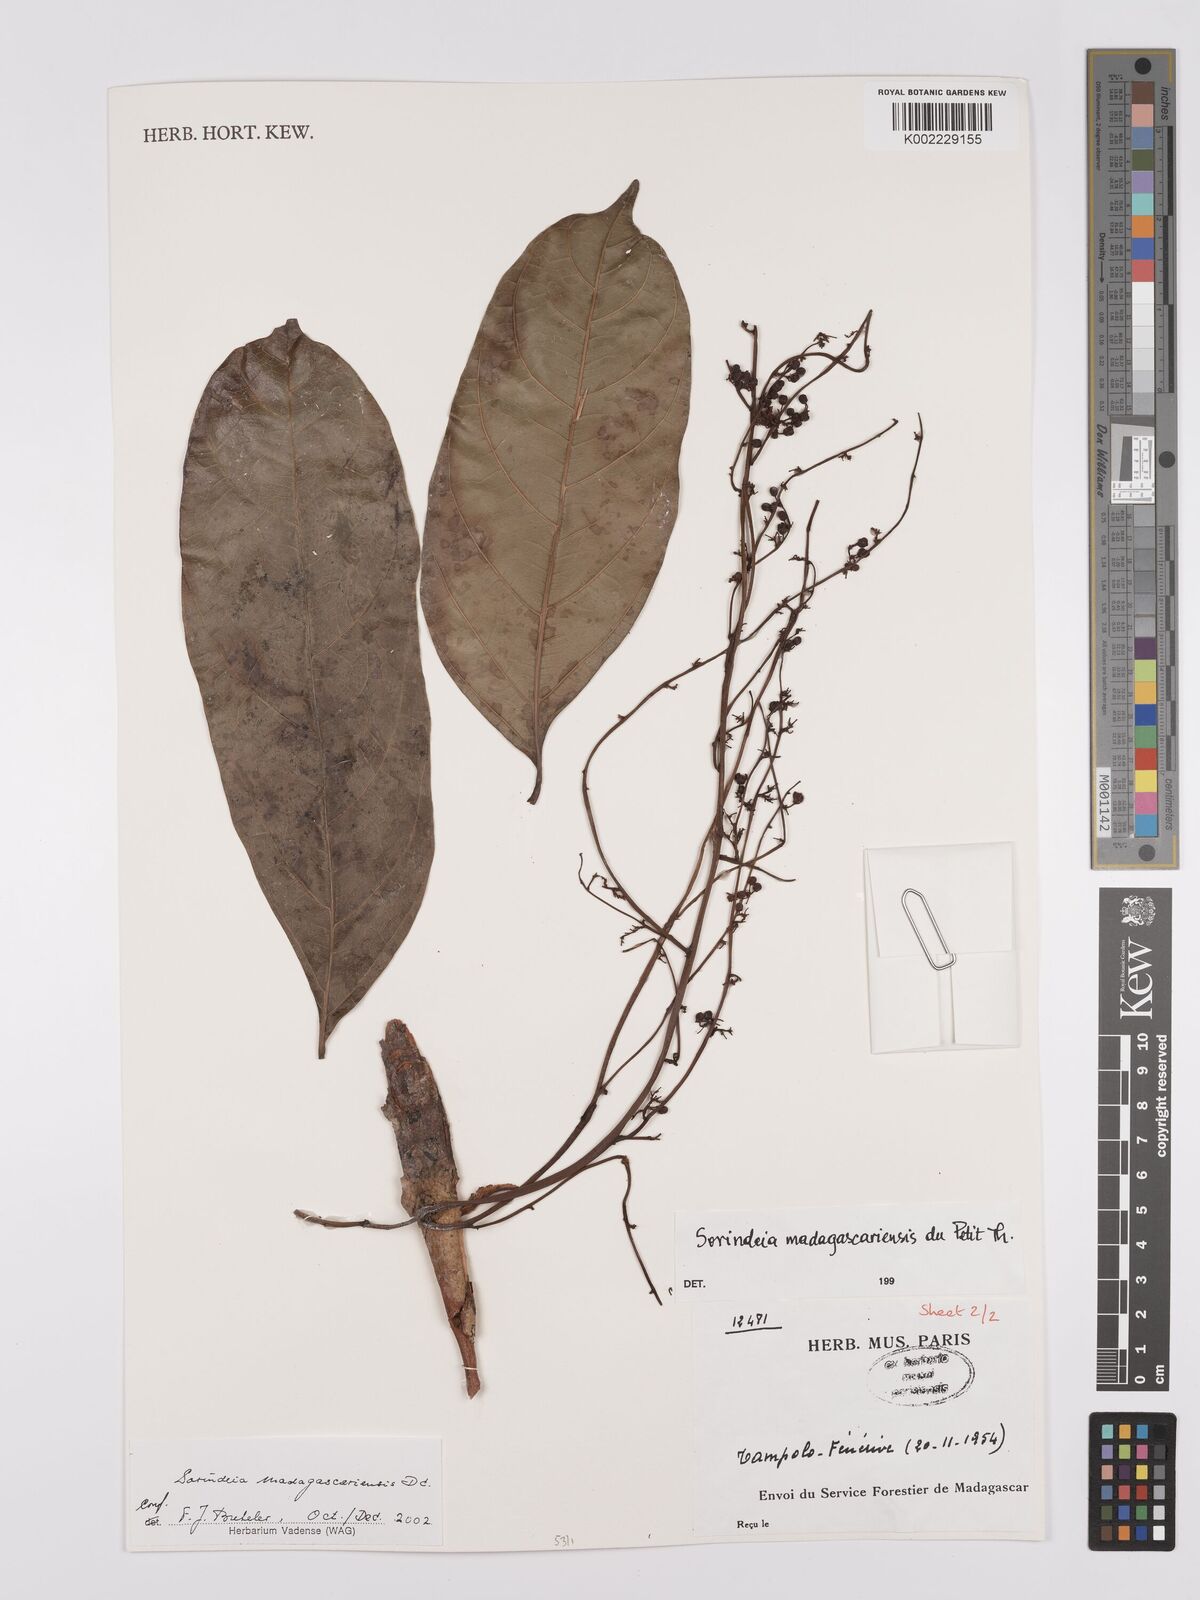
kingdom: Plantae
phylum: Tracheophyta
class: Magnoliopsida
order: Sapindales
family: Anacardiaceae
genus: Sorindeia
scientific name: Sorindeia madagascariensis
